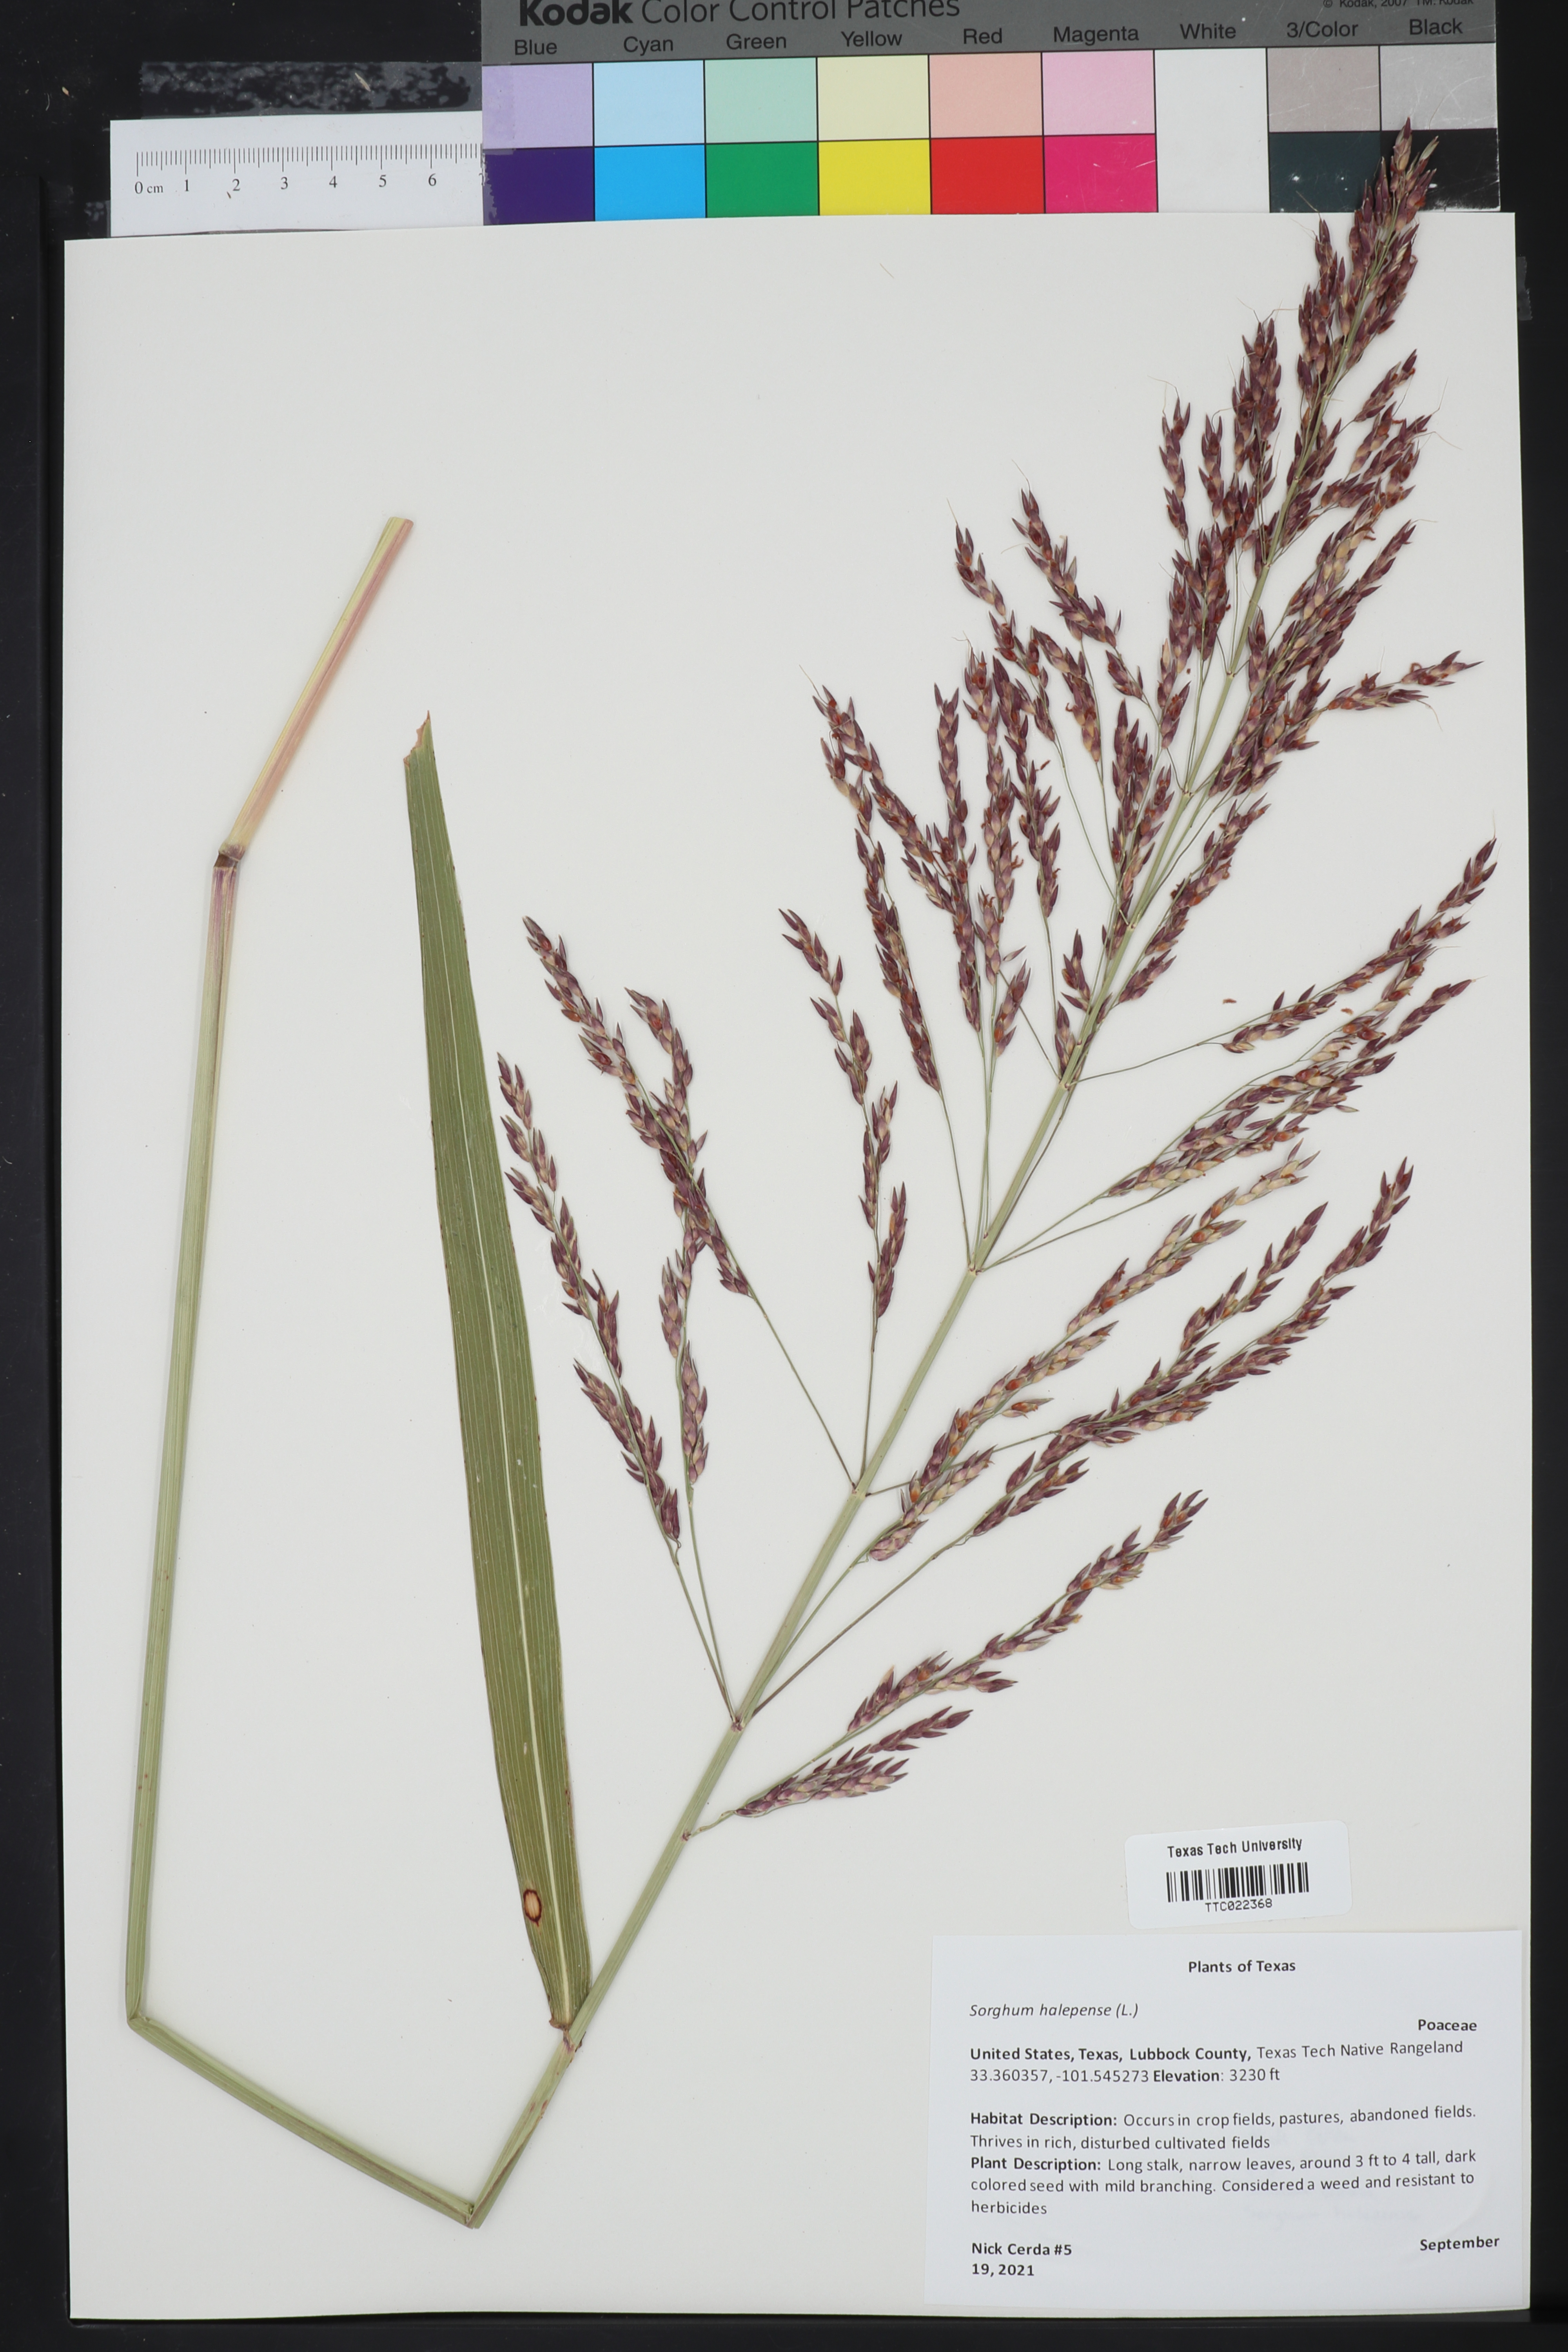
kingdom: Plantae
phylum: Tracheophyta
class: Liliopsida
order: Poales
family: Poaceae
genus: Sorghum
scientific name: Sorghum halepense
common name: Johnson-grass
